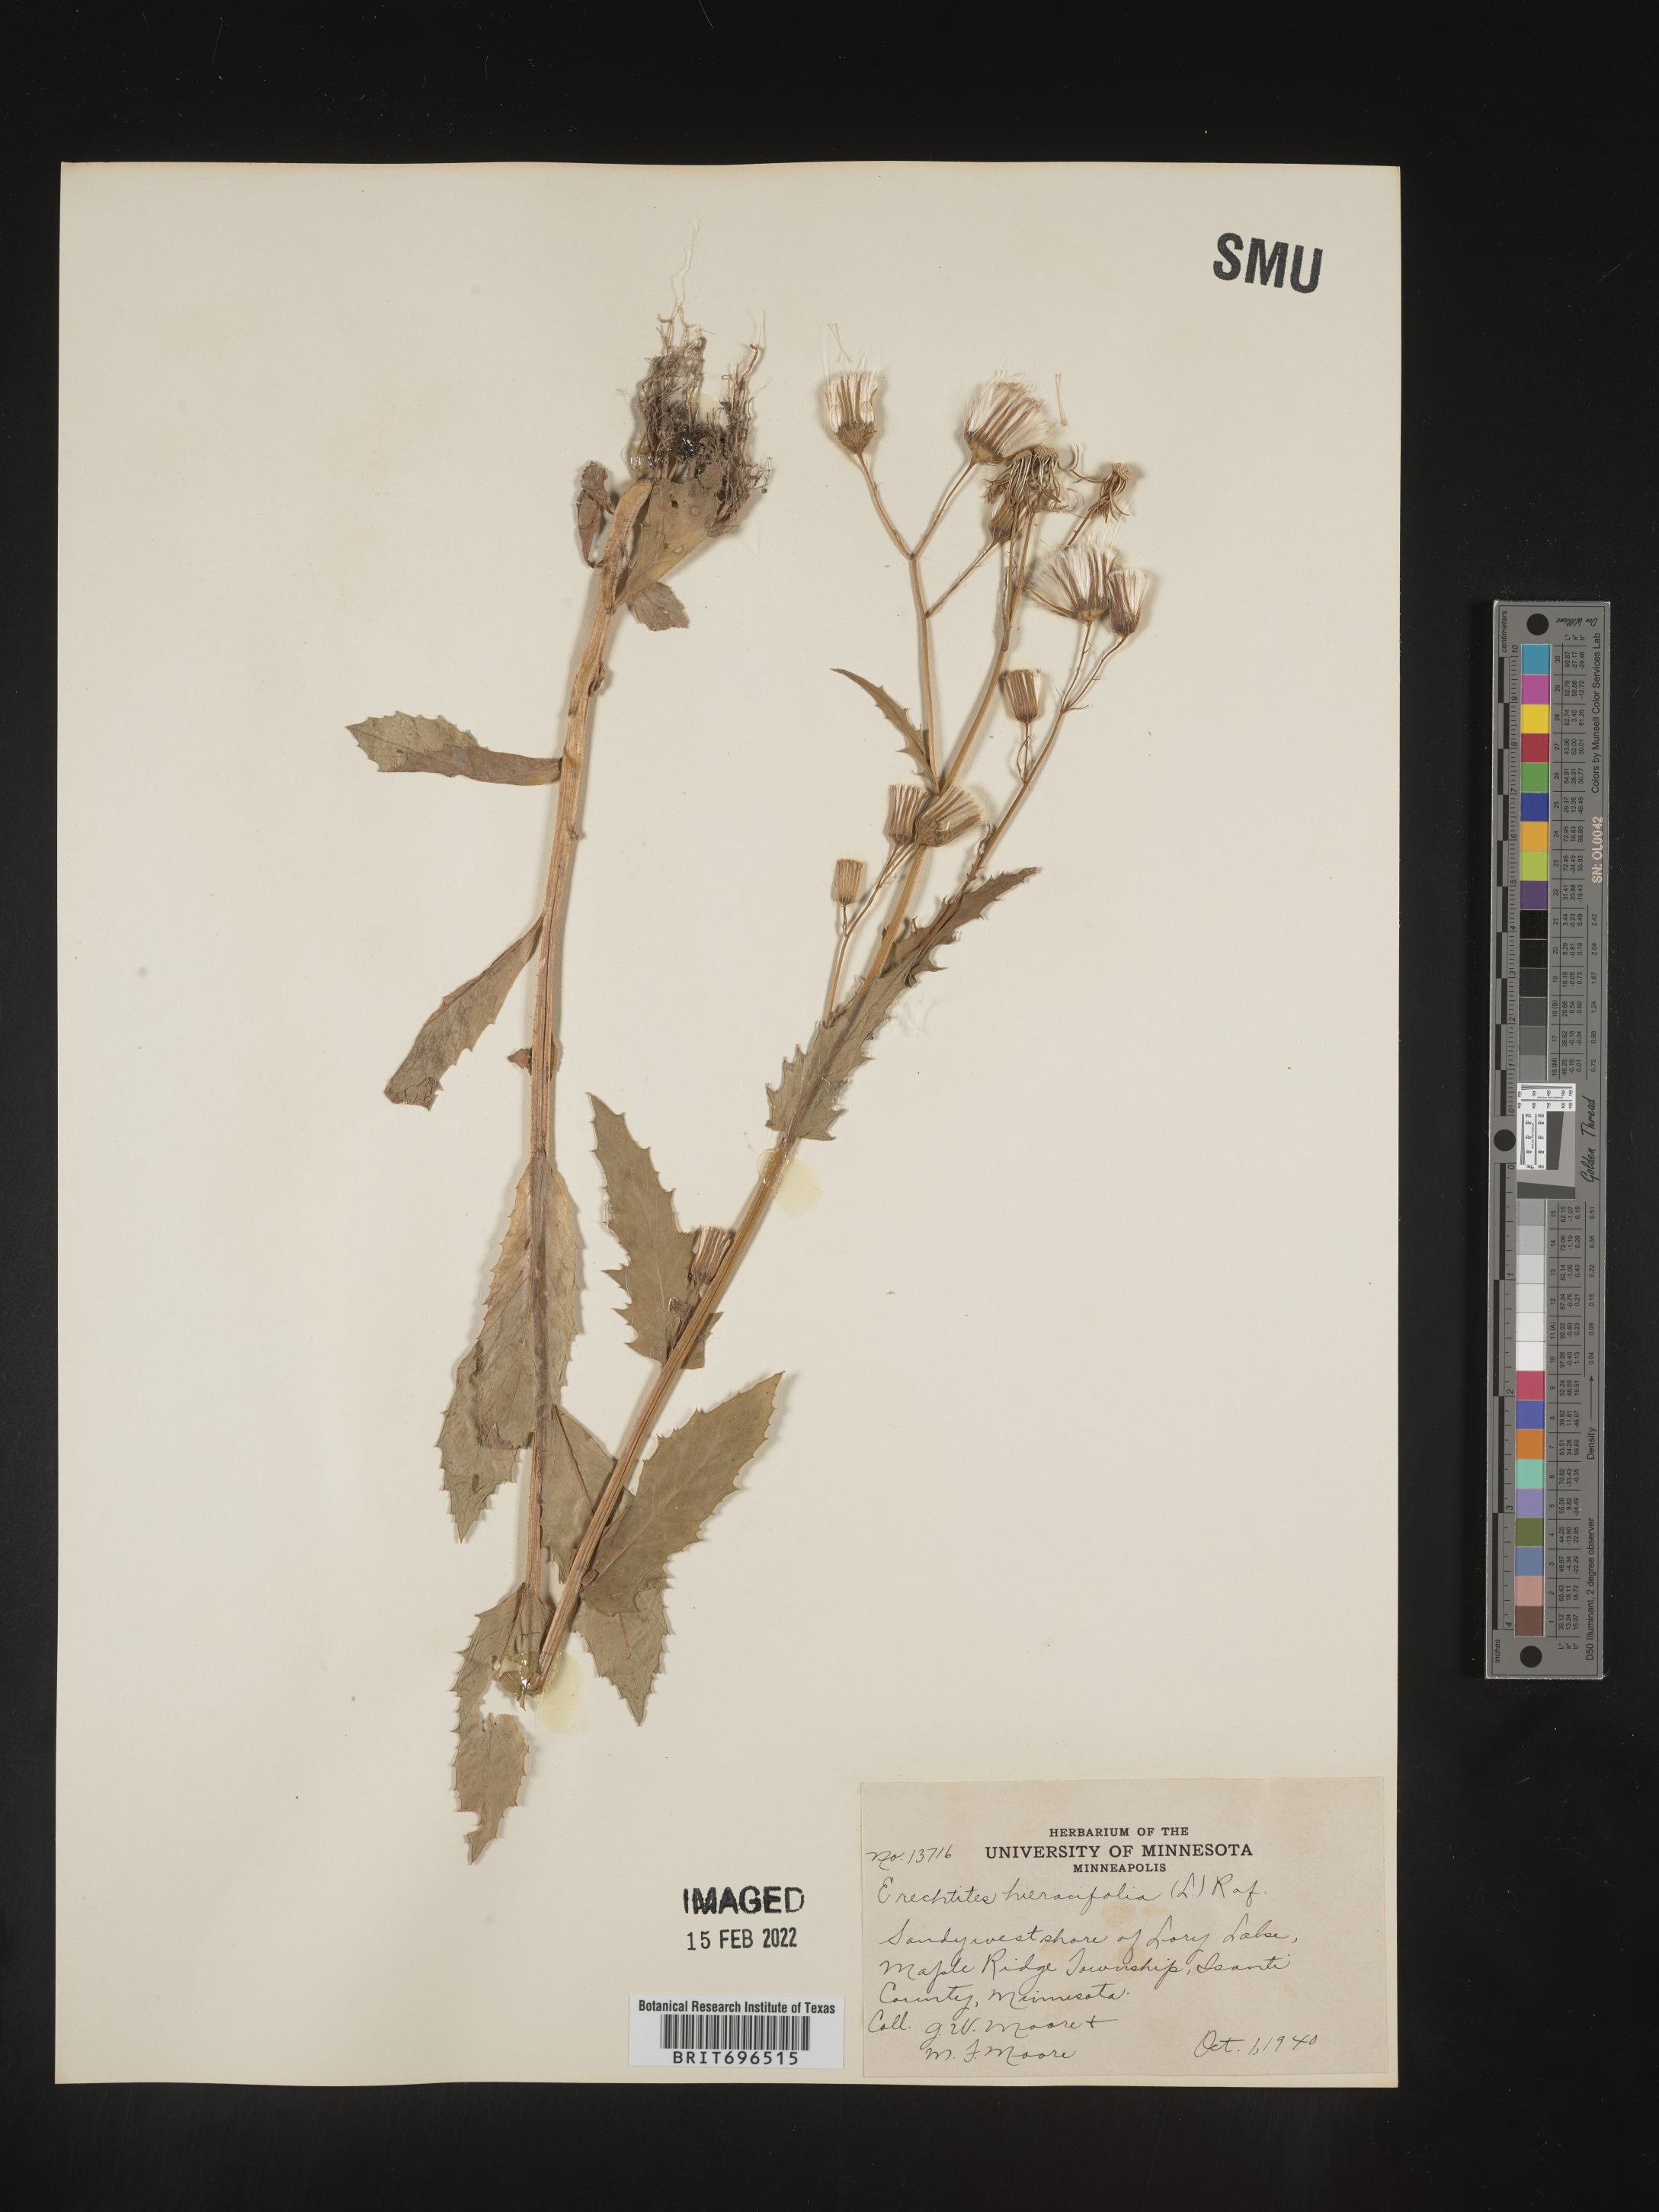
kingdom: Plantae
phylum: Tracheophyta
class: Magnoliopsida
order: Asterales
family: Asteraceae
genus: Erechtites
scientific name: Erechtites hieraciifolius
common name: American burnweed
